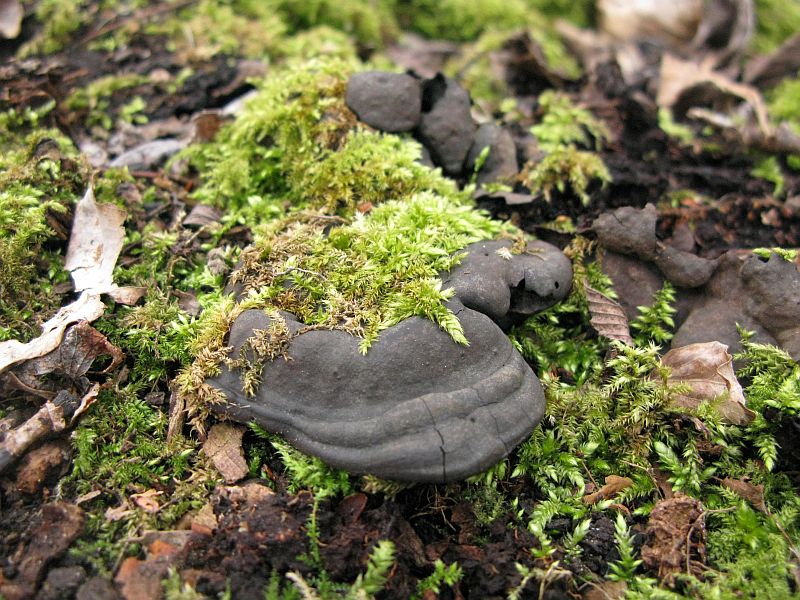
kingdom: Fungi
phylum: Basidiomycota
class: Agaricomycetes
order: Polyporales
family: Polyporaceae
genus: Ganoderma
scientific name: Ganoderma applanatum
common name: flad lakporesvamp
